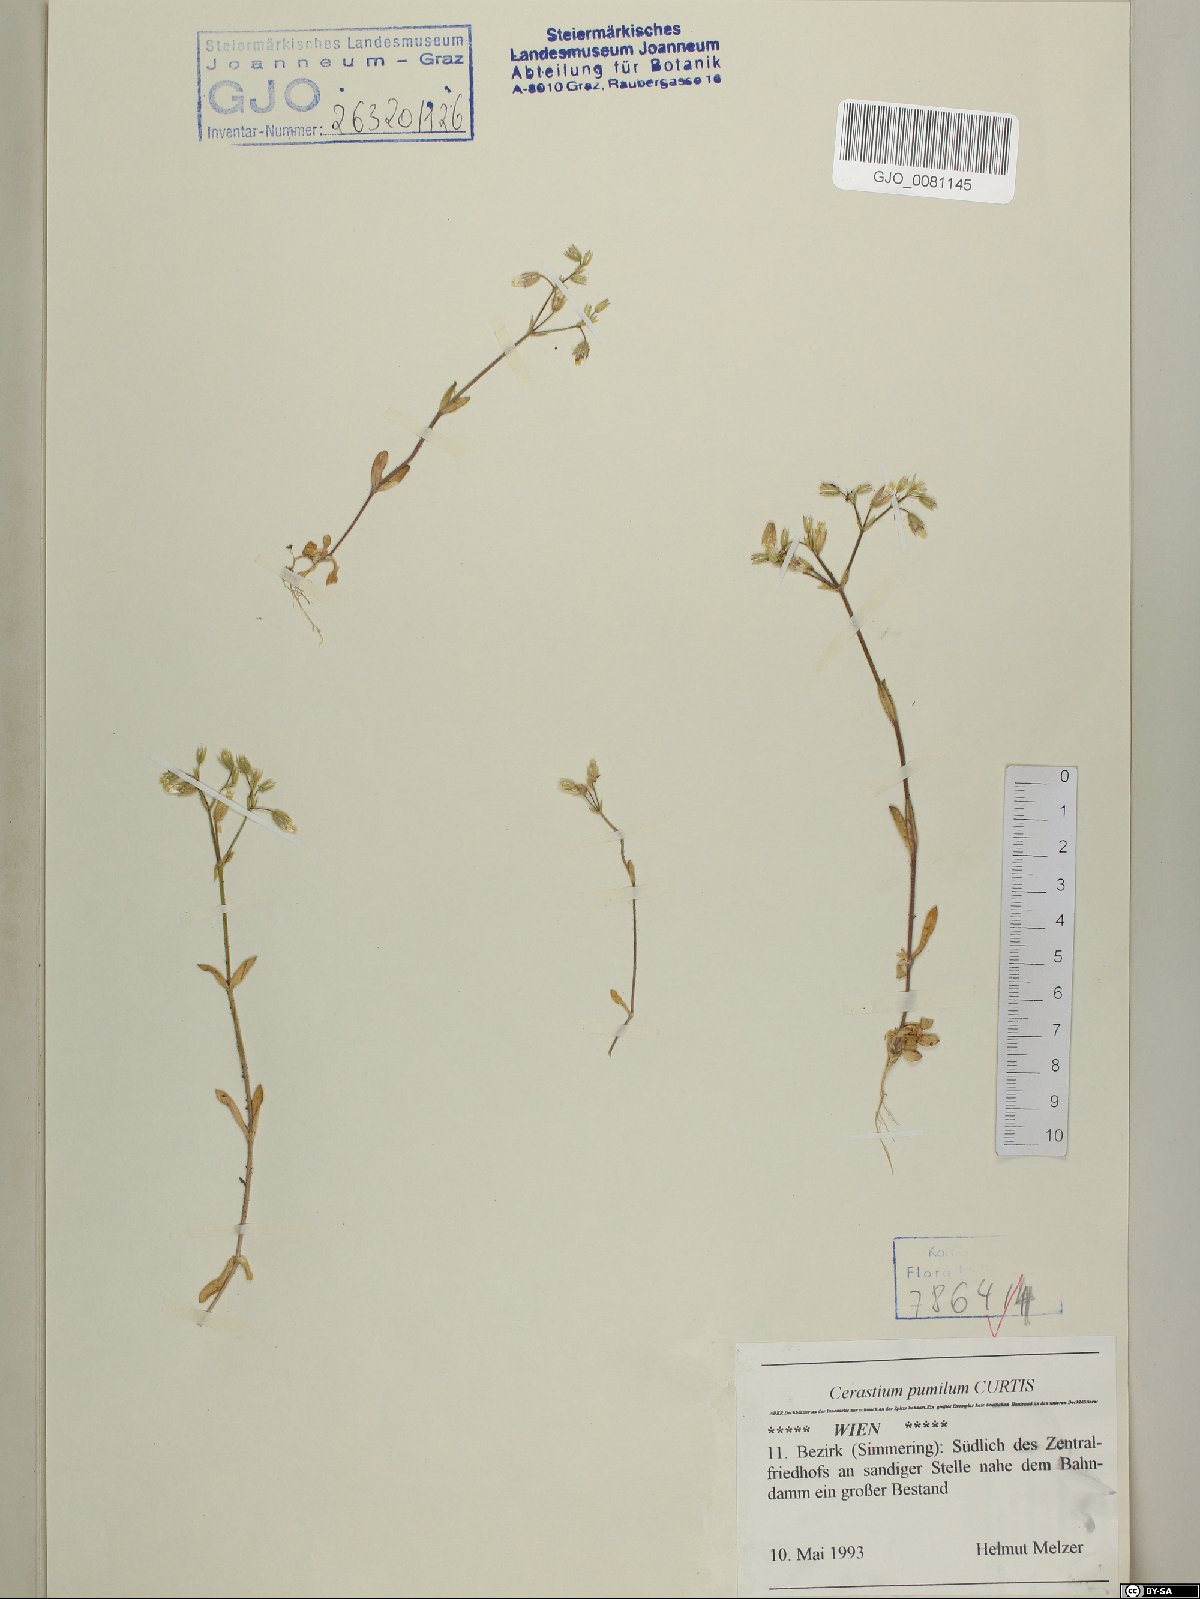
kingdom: Plantae
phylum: Tracheophyta
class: Magnoliopsida
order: Caryophyllales
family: Caryophyllaceae
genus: Cerastium
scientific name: Cerastium pumilum
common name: Dwarf mouse-ear
